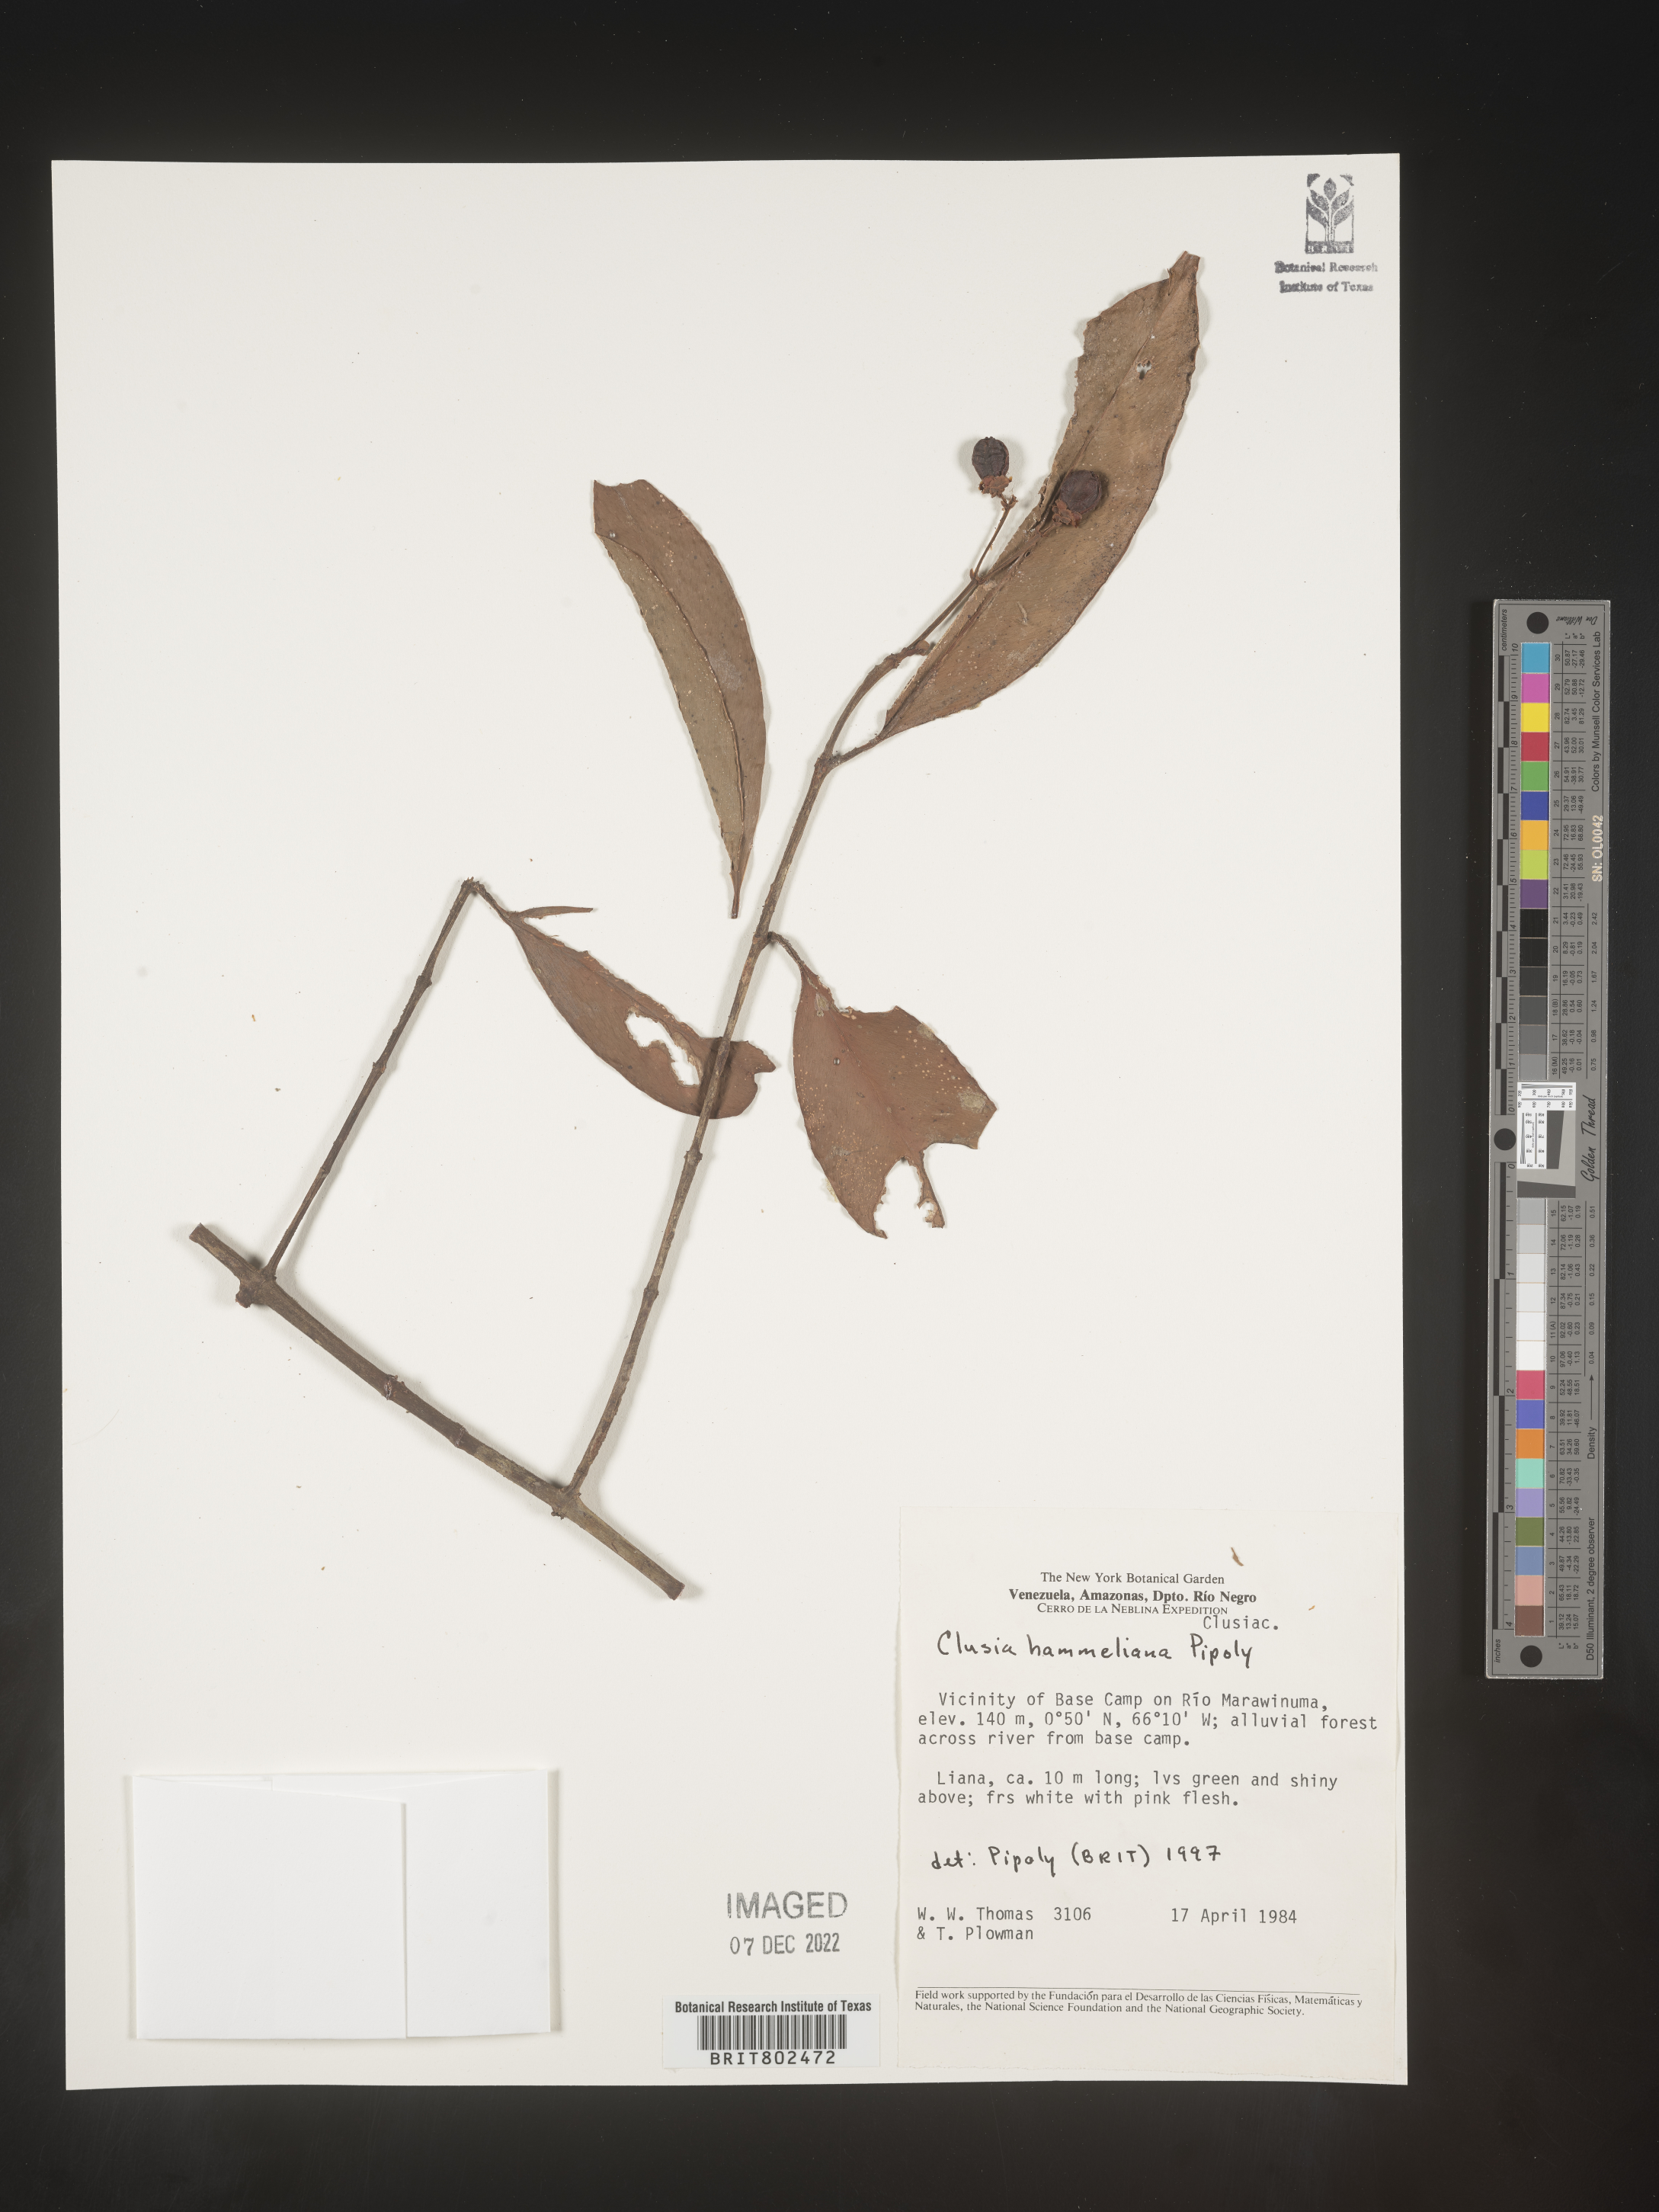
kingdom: Plantae
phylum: Tracheophyta
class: Magnoliopsida
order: Malpighiales
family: Clusiaceae
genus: Clusia
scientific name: Clusia hammeliana
